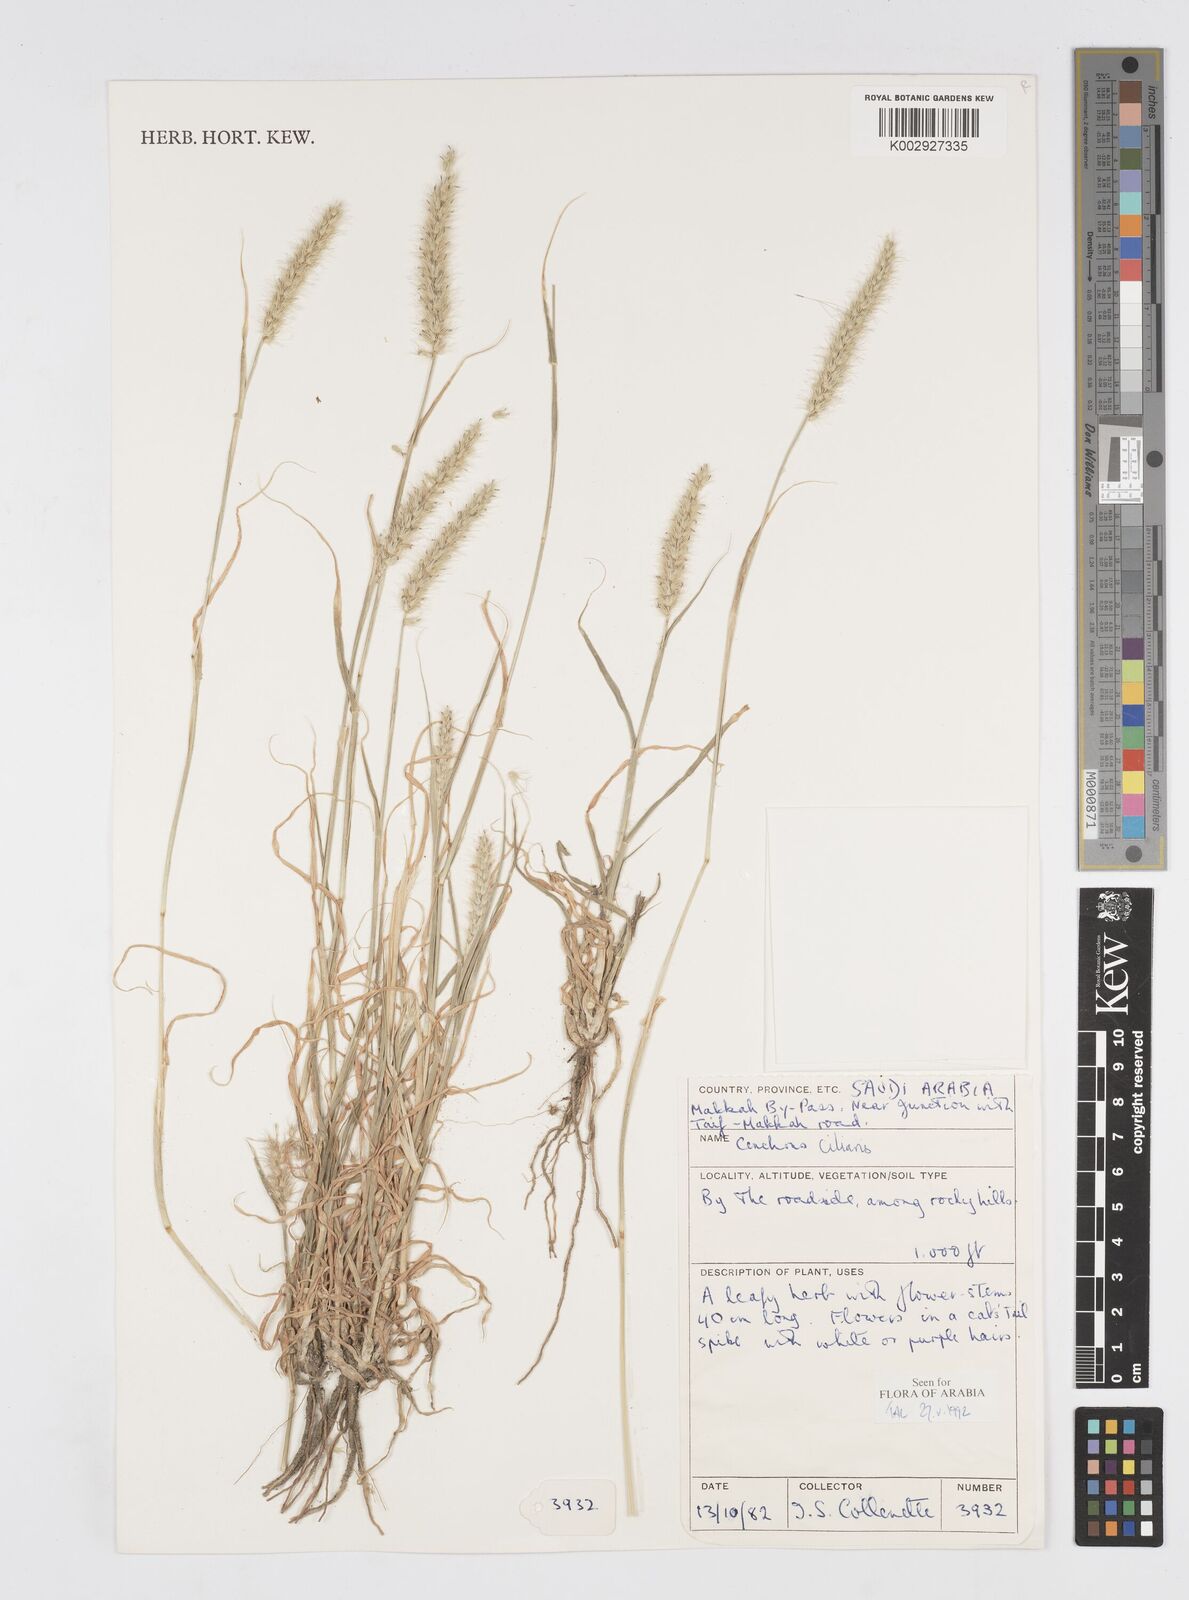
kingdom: Plantae
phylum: Tracheophyta
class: Liliopsida
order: Poales
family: Poaceae
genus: Cenchrus
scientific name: Cenchrus ciliaris
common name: Buffelgrass
